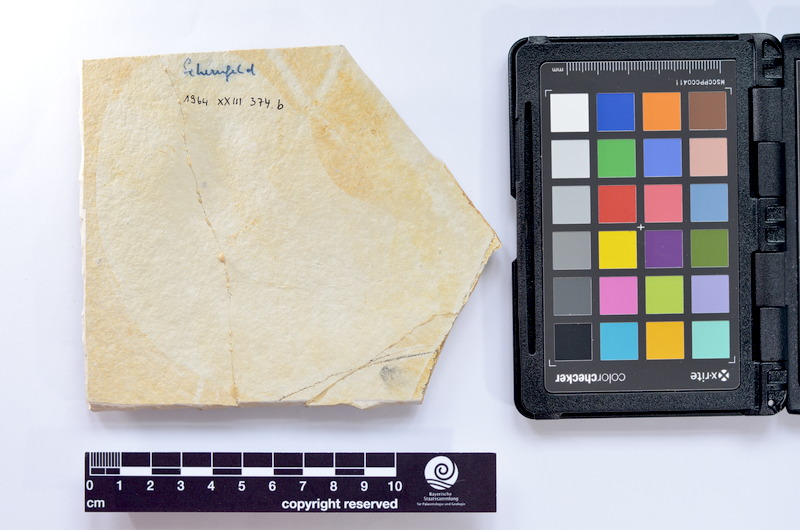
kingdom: Animalia
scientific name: Animalia
